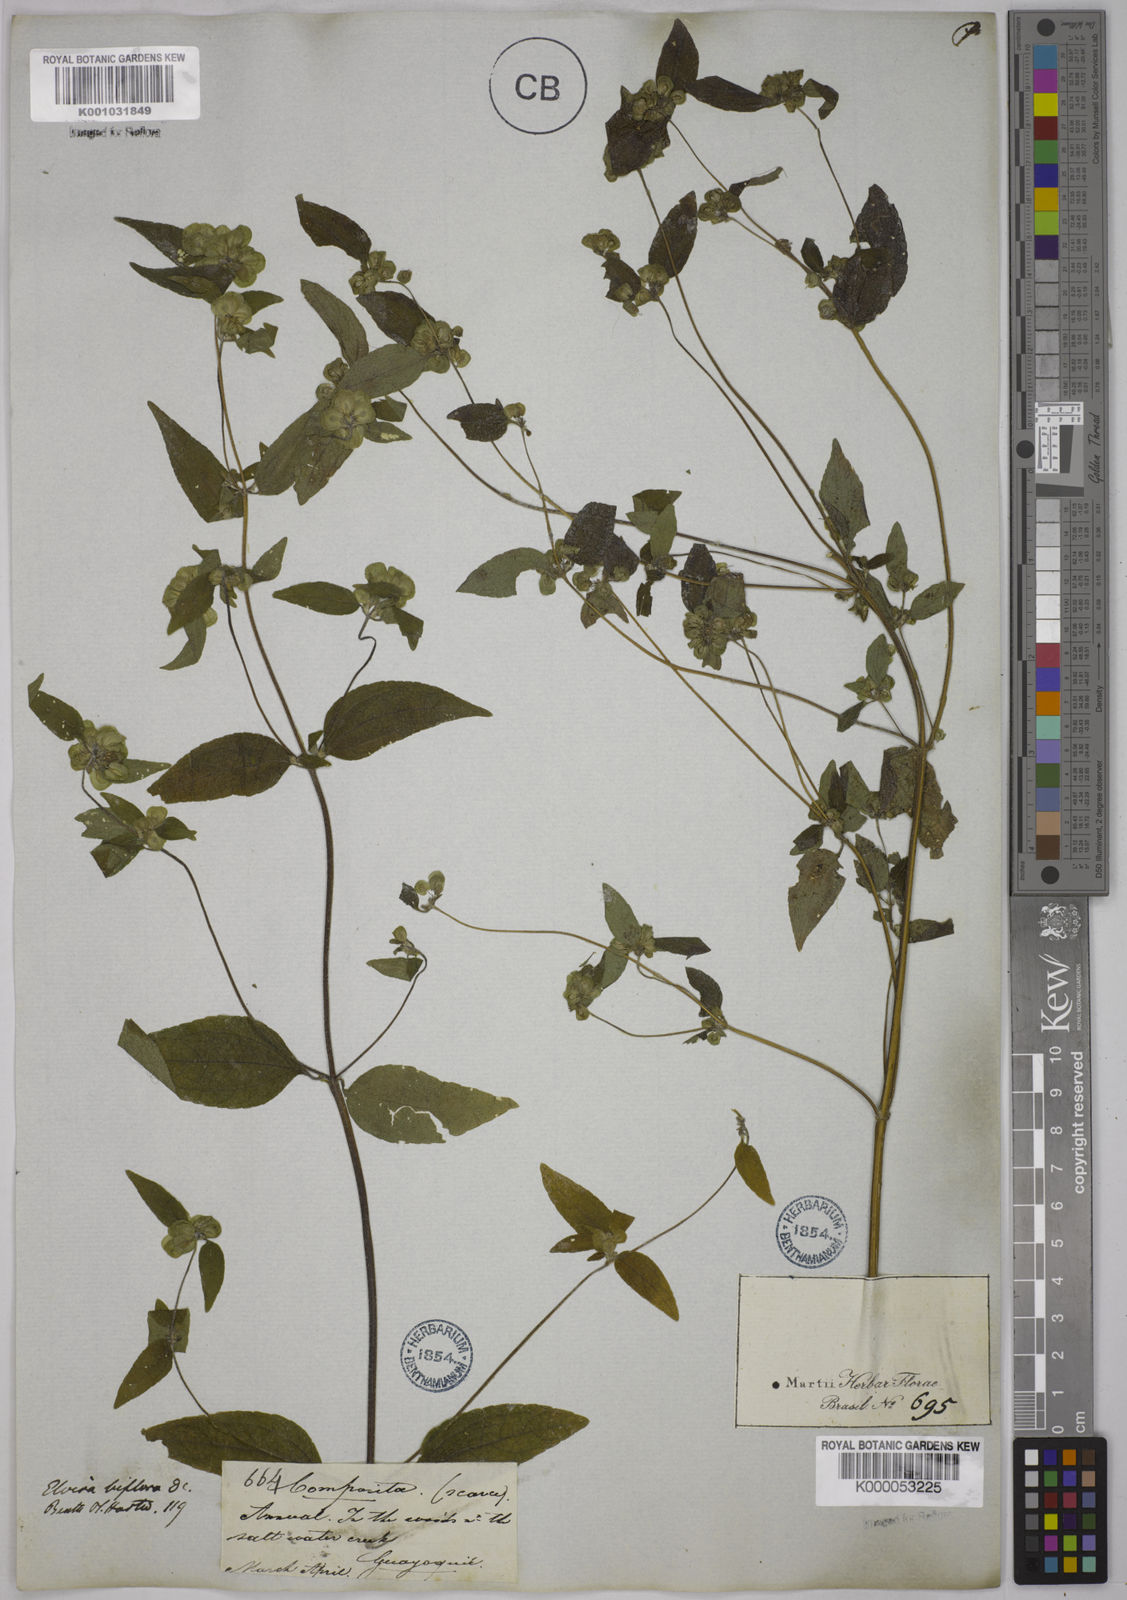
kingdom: Plantae
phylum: Tracheophyta
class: Magnoliopsida
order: Asterales
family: Asteraceae
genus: Delilia
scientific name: Delilia biflora
